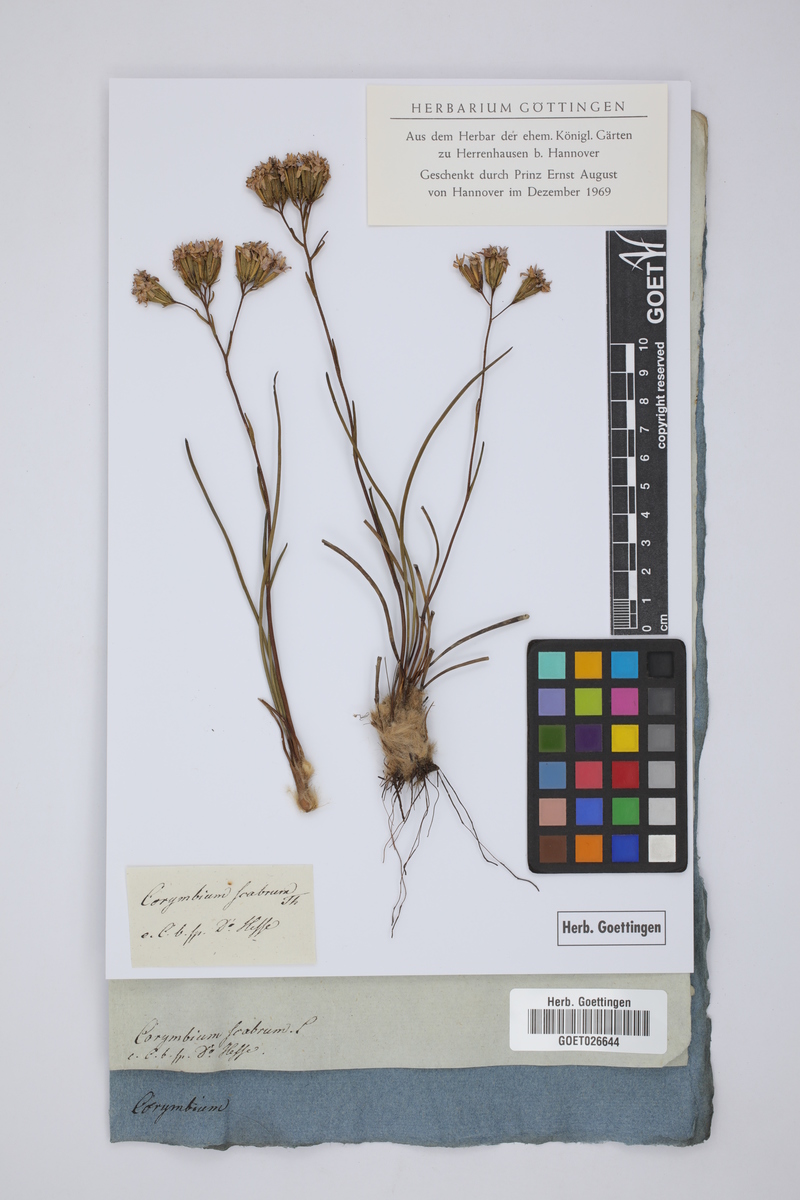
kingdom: Plantae
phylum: Tracheophyta
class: Magnoliopsida
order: Asterales
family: Asteraceae
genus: Corymbium
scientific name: Corymbium africanum
